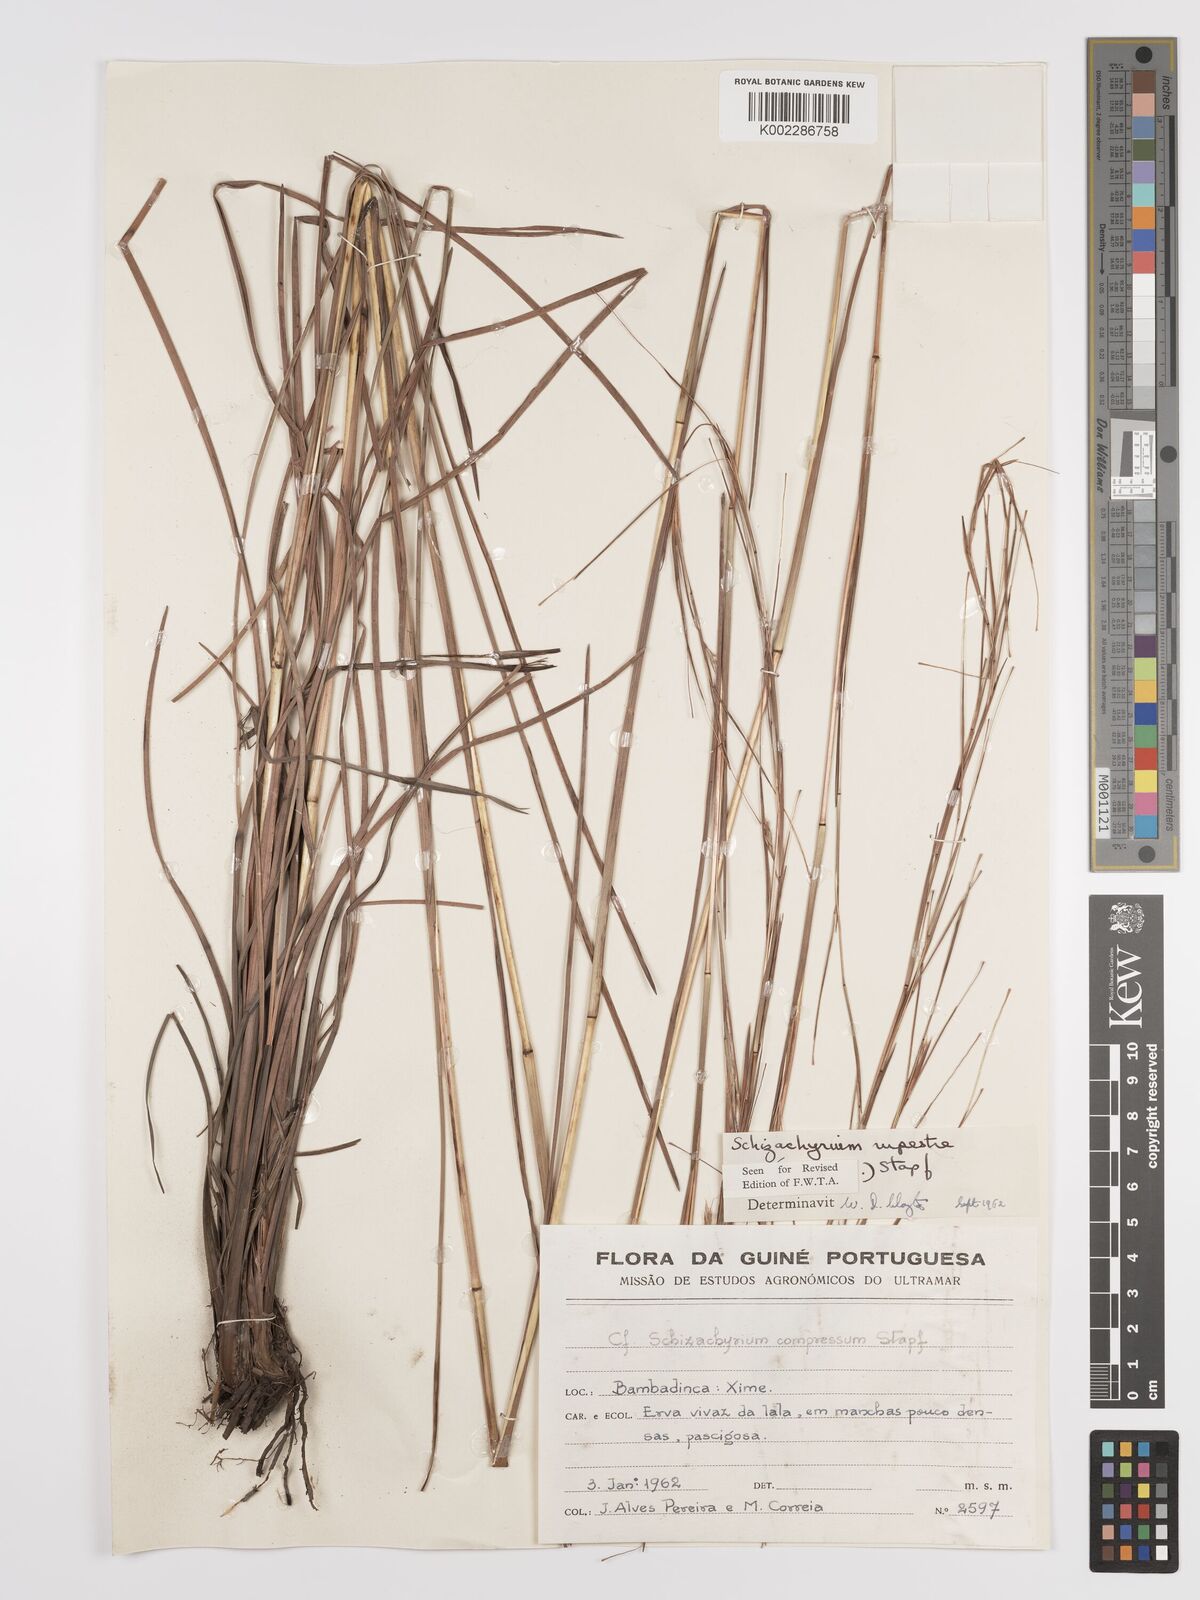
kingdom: Plantae
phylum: Tracheophyta
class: Liliopsida
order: Poales
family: Poaceae
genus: Andropogon
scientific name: Andropogon rupestris
